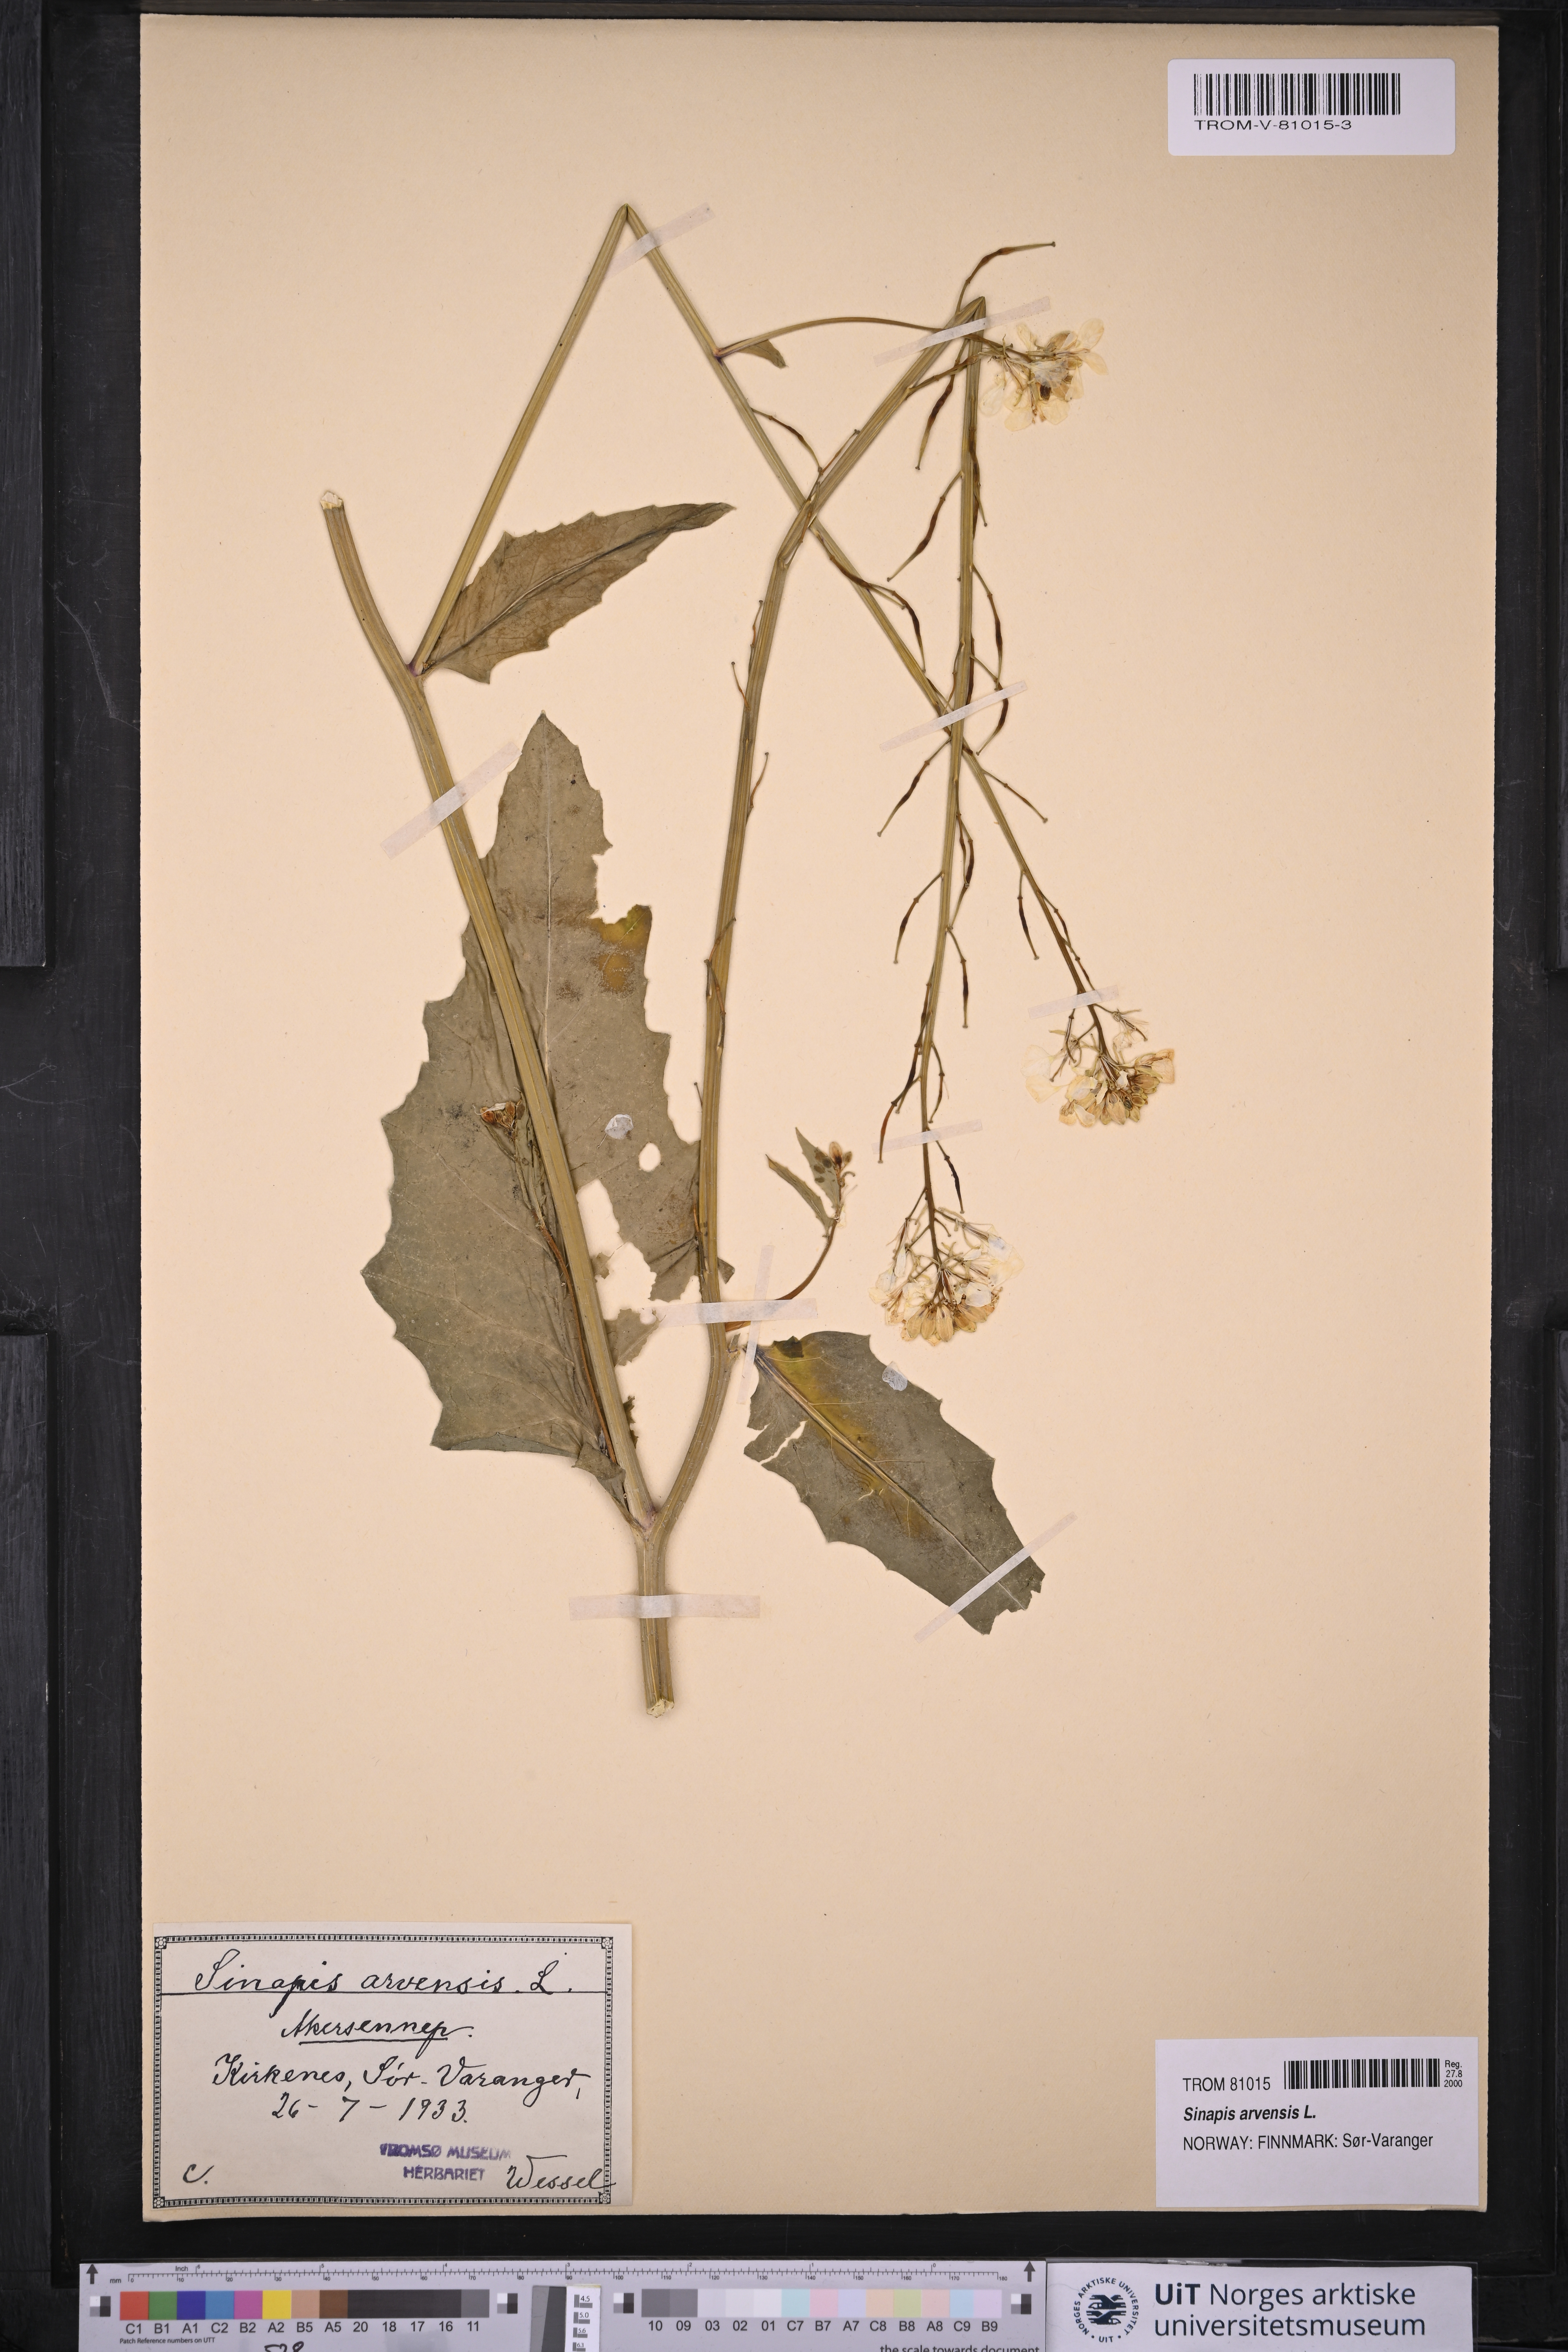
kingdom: Plantae
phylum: Tracheophyta
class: Magnoliopsida
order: Brassicales
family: Brassicaceae
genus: Sinapis
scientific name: Sinapis arvensis
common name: Charlock
